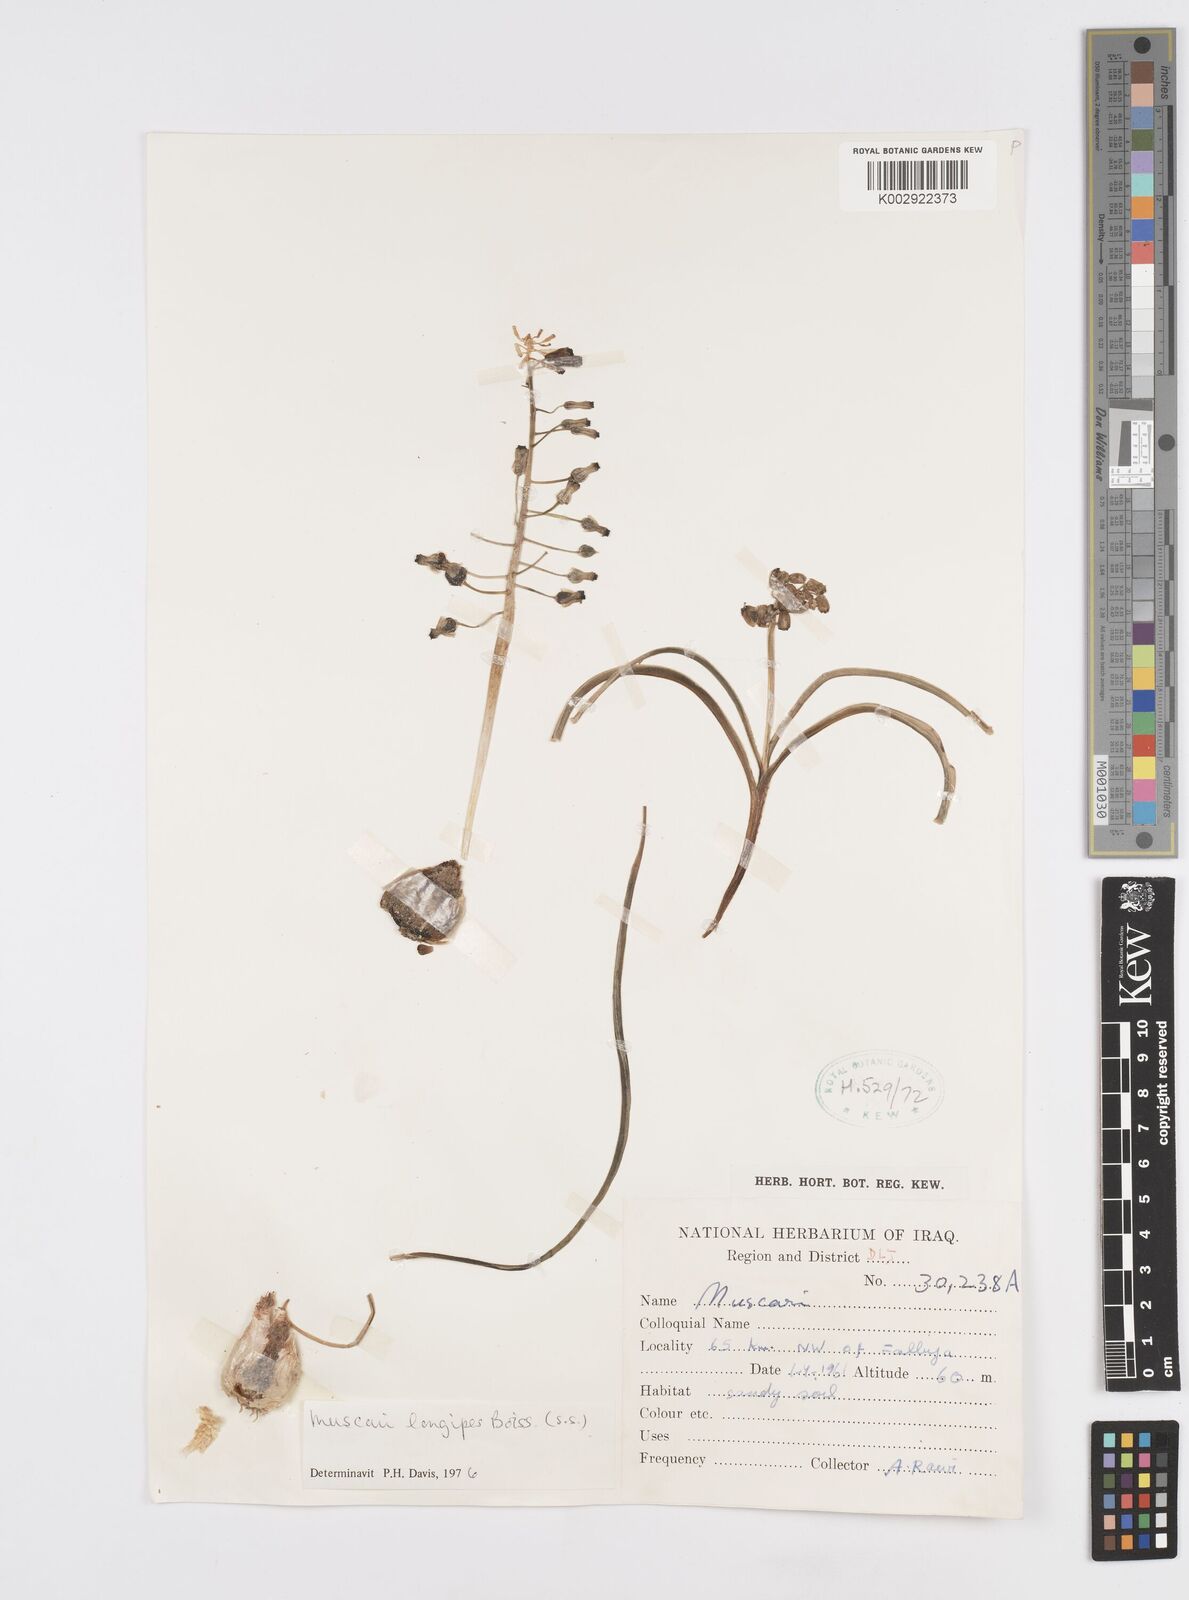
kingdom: Plantae
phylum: Tracheophyta
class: Liliopsida
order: Asparagales
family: Asparagaceae
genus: Muscari
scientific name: Muscari longipes
